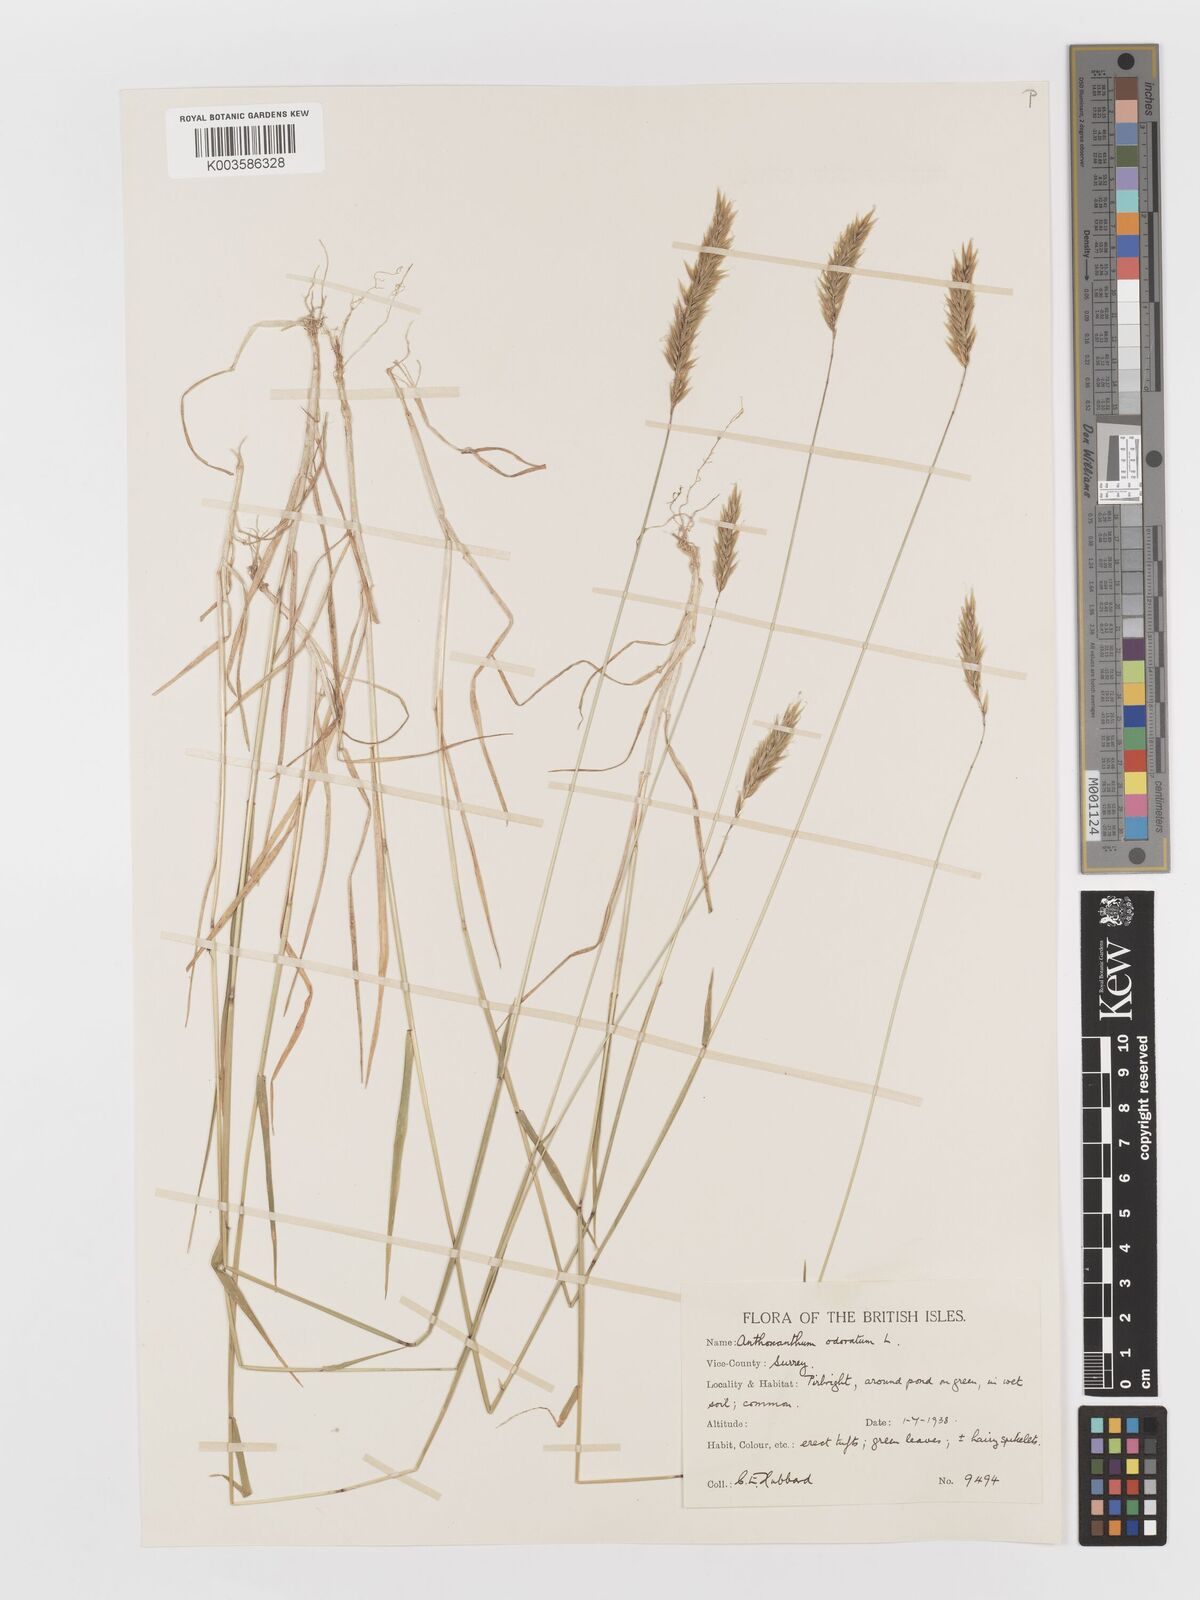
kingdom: Plantae
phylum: Tracheophyta
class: Liliopsida
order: Poales
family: Poaceae
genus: Anthoxanthum
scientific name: Anthoxanthum odoratum
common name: Sweet vernalgrass
